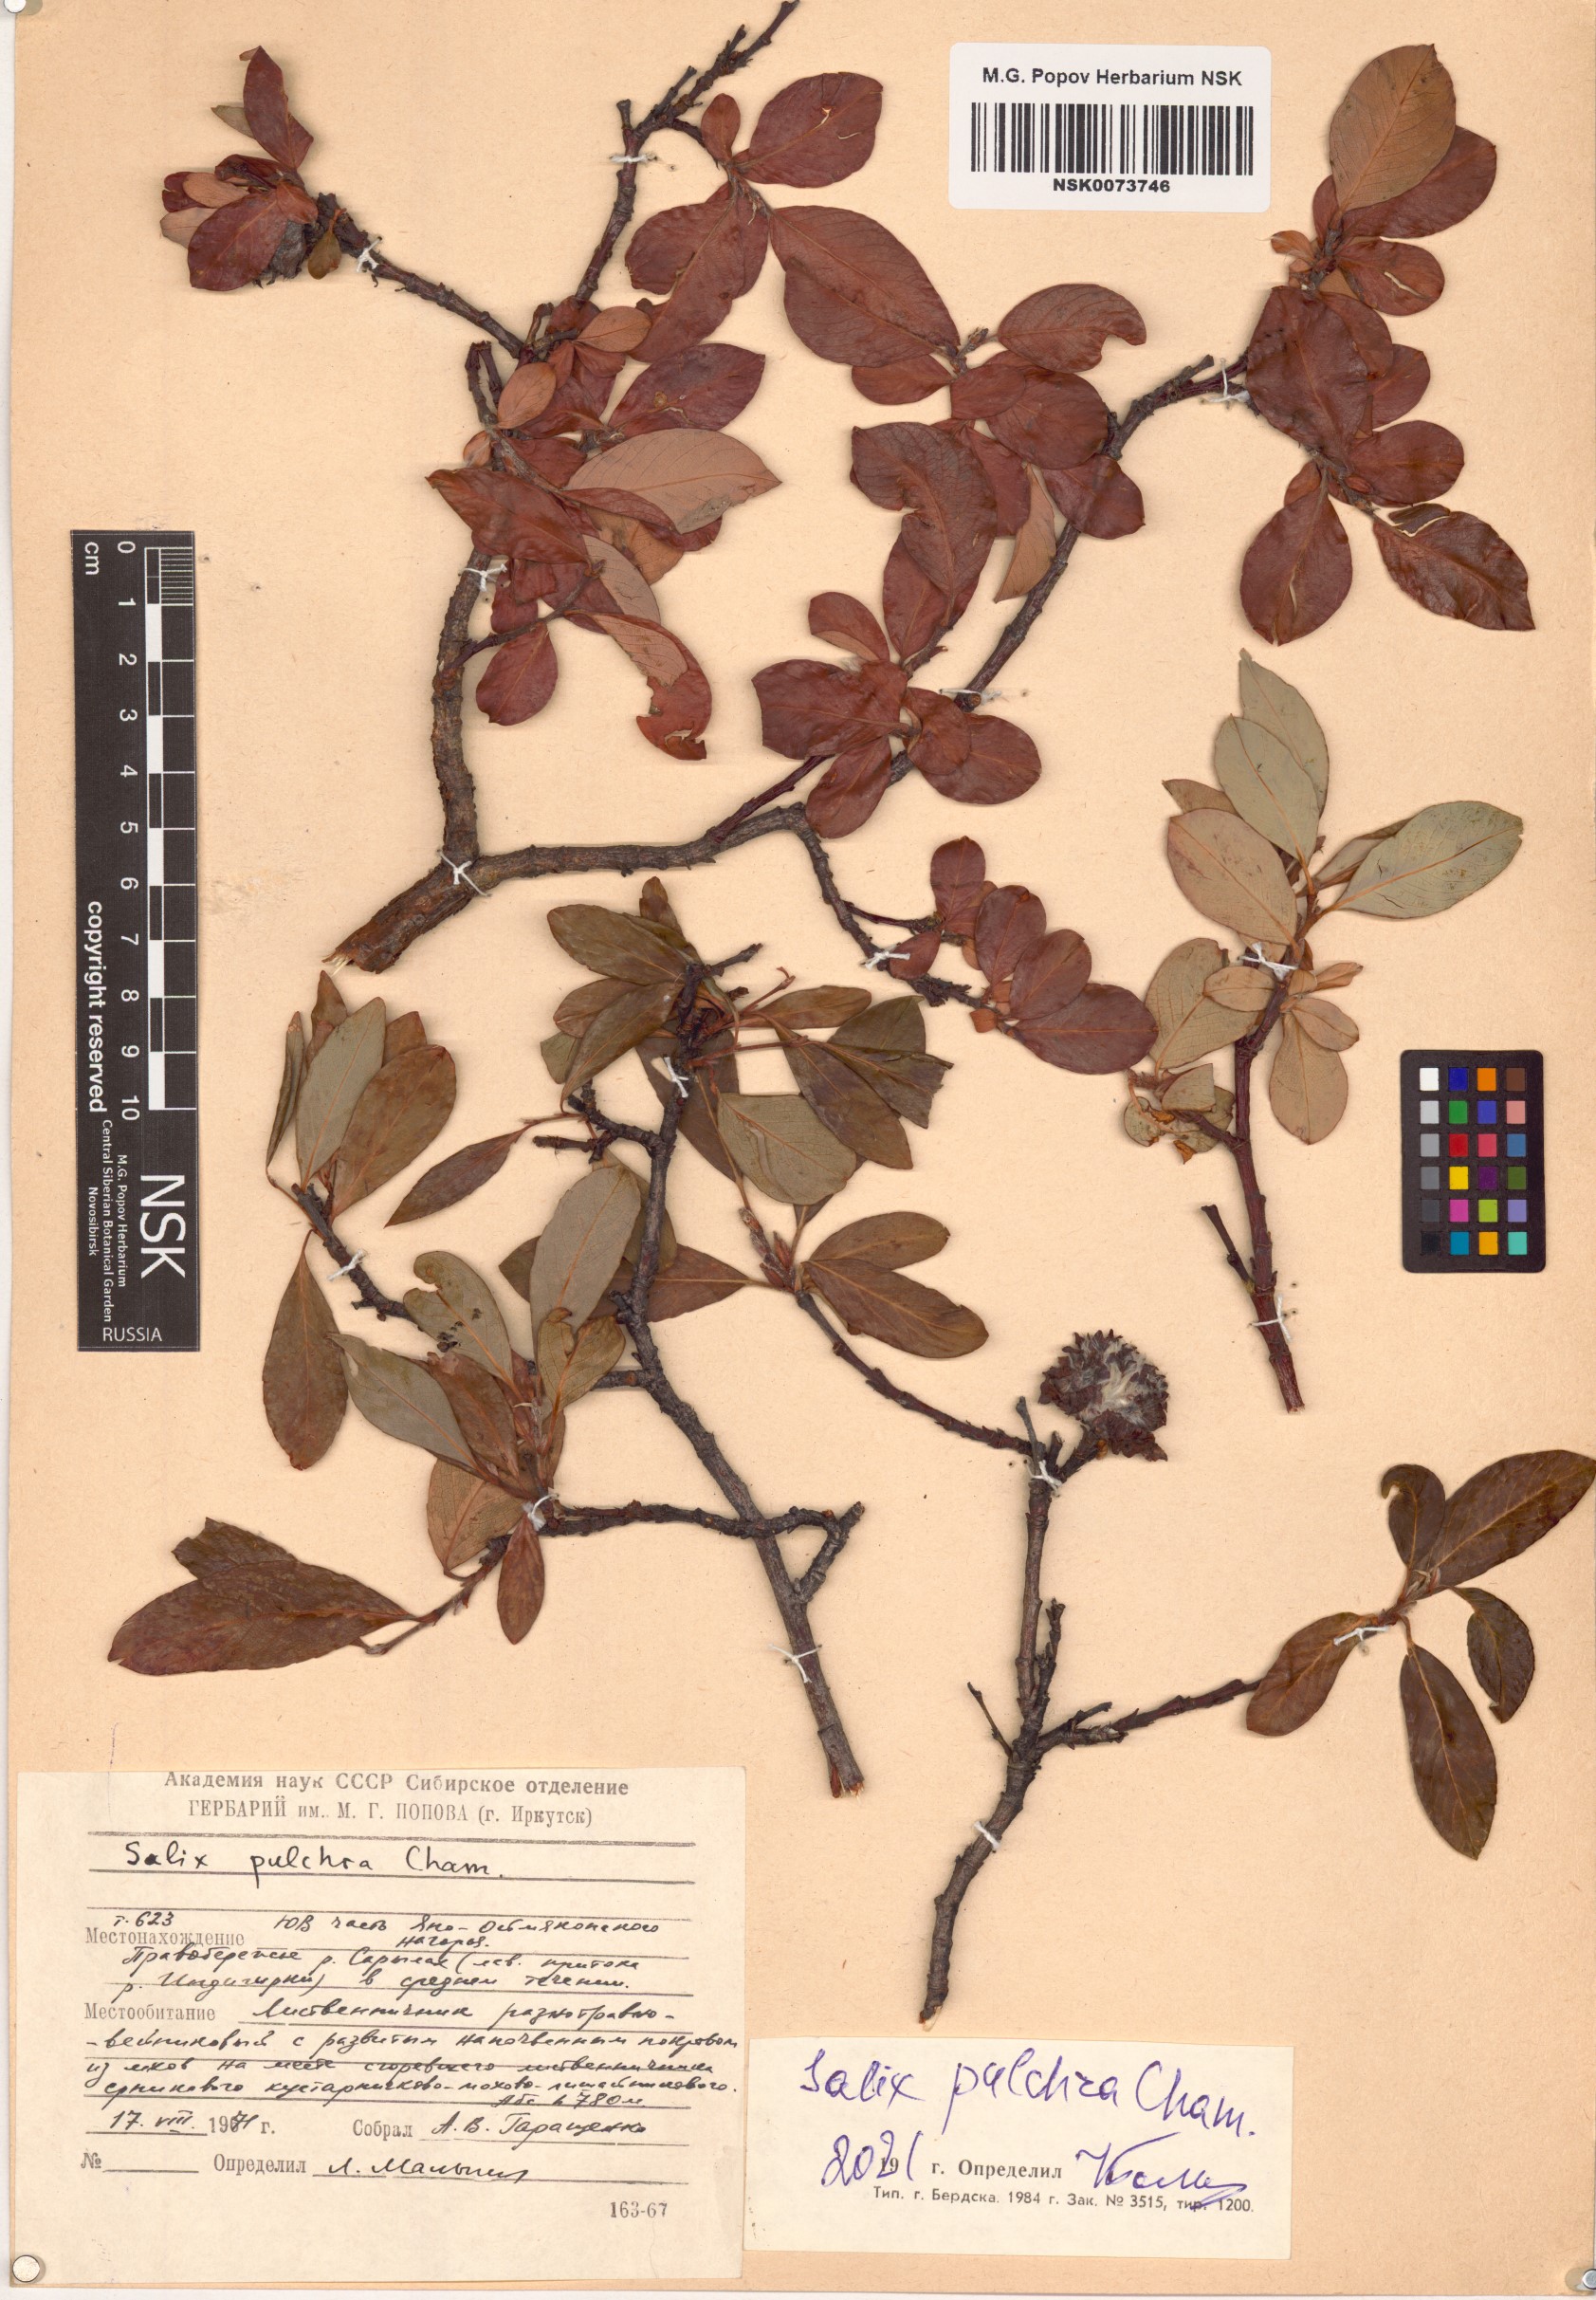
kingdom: Plantae
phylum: Tracheophyta
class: Magnoliopsida
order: Malpighiales
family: Salicaceae
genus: Salix
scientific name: Salix pulchra
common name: Diamond-leaved willow
